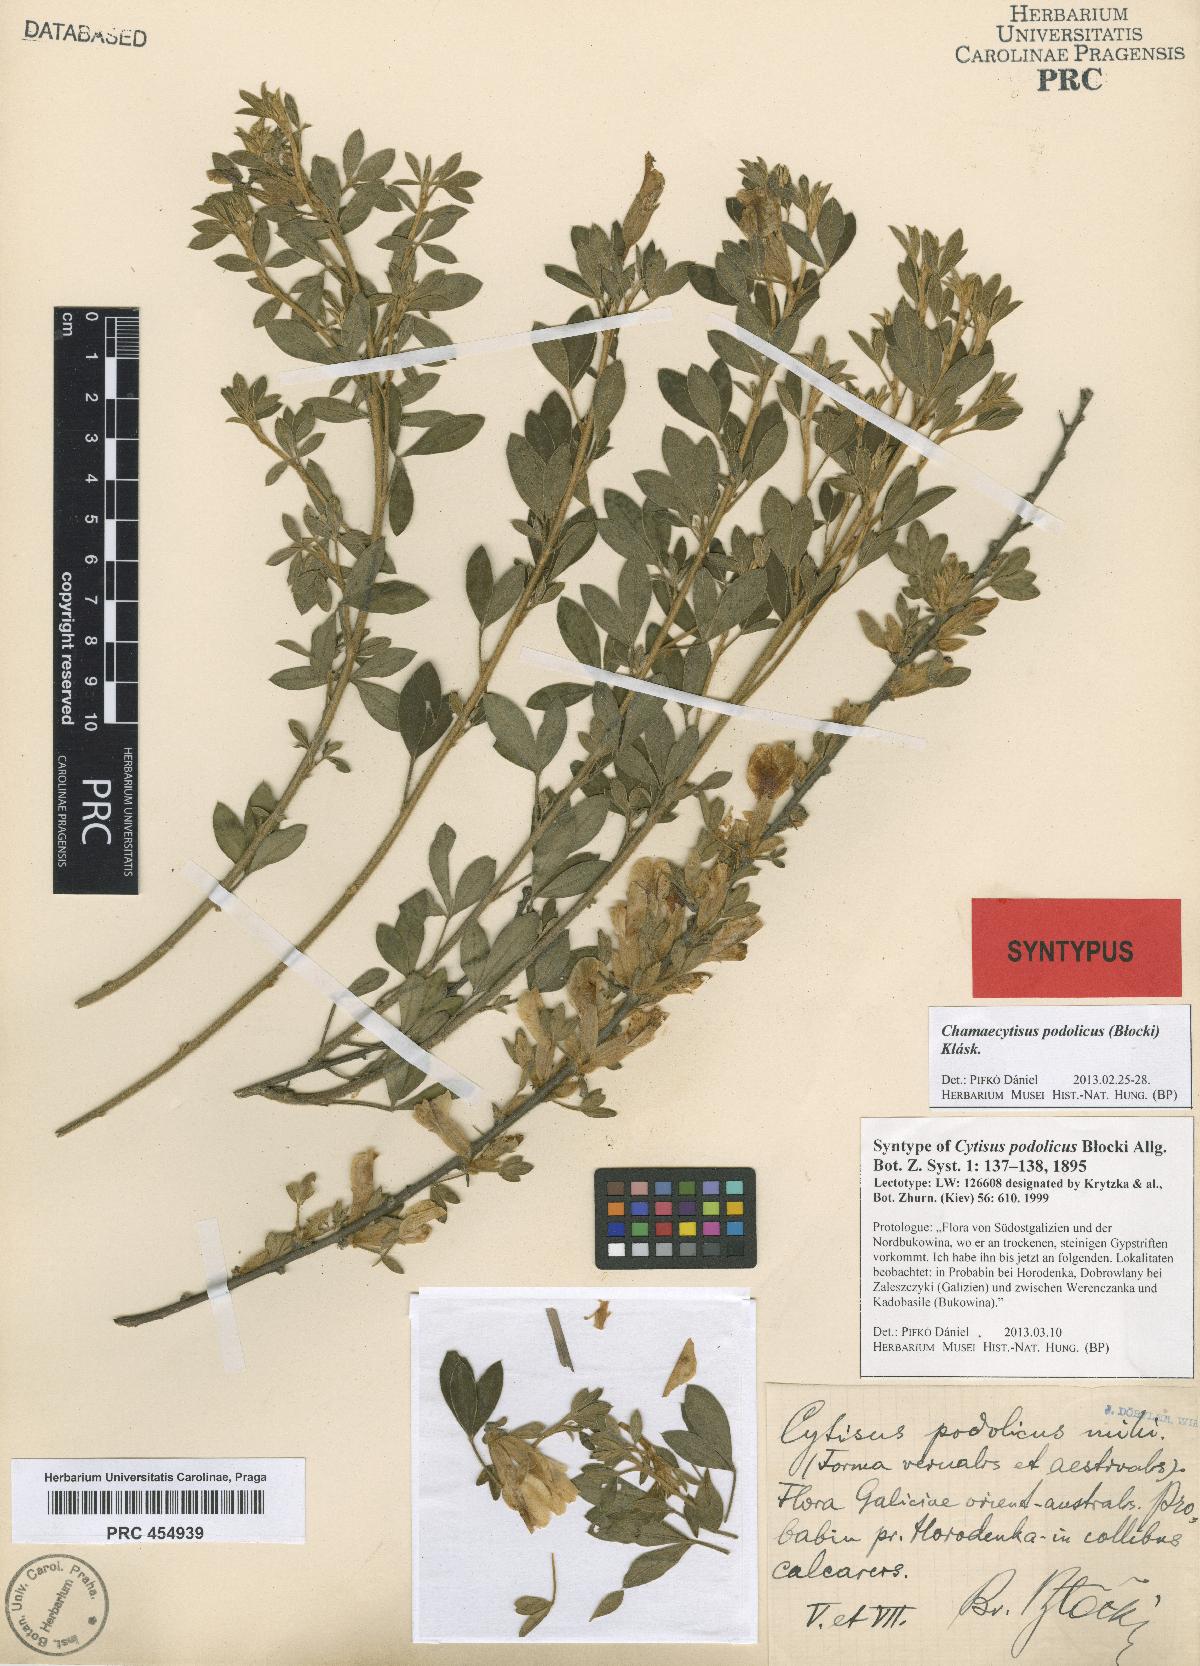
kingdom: Plantae
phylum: Tracheophyta
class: Magnoliopsida
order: Fabales
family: Fabaceae
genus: Chamaecytisus
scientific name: Chamaecytisus podolicus
